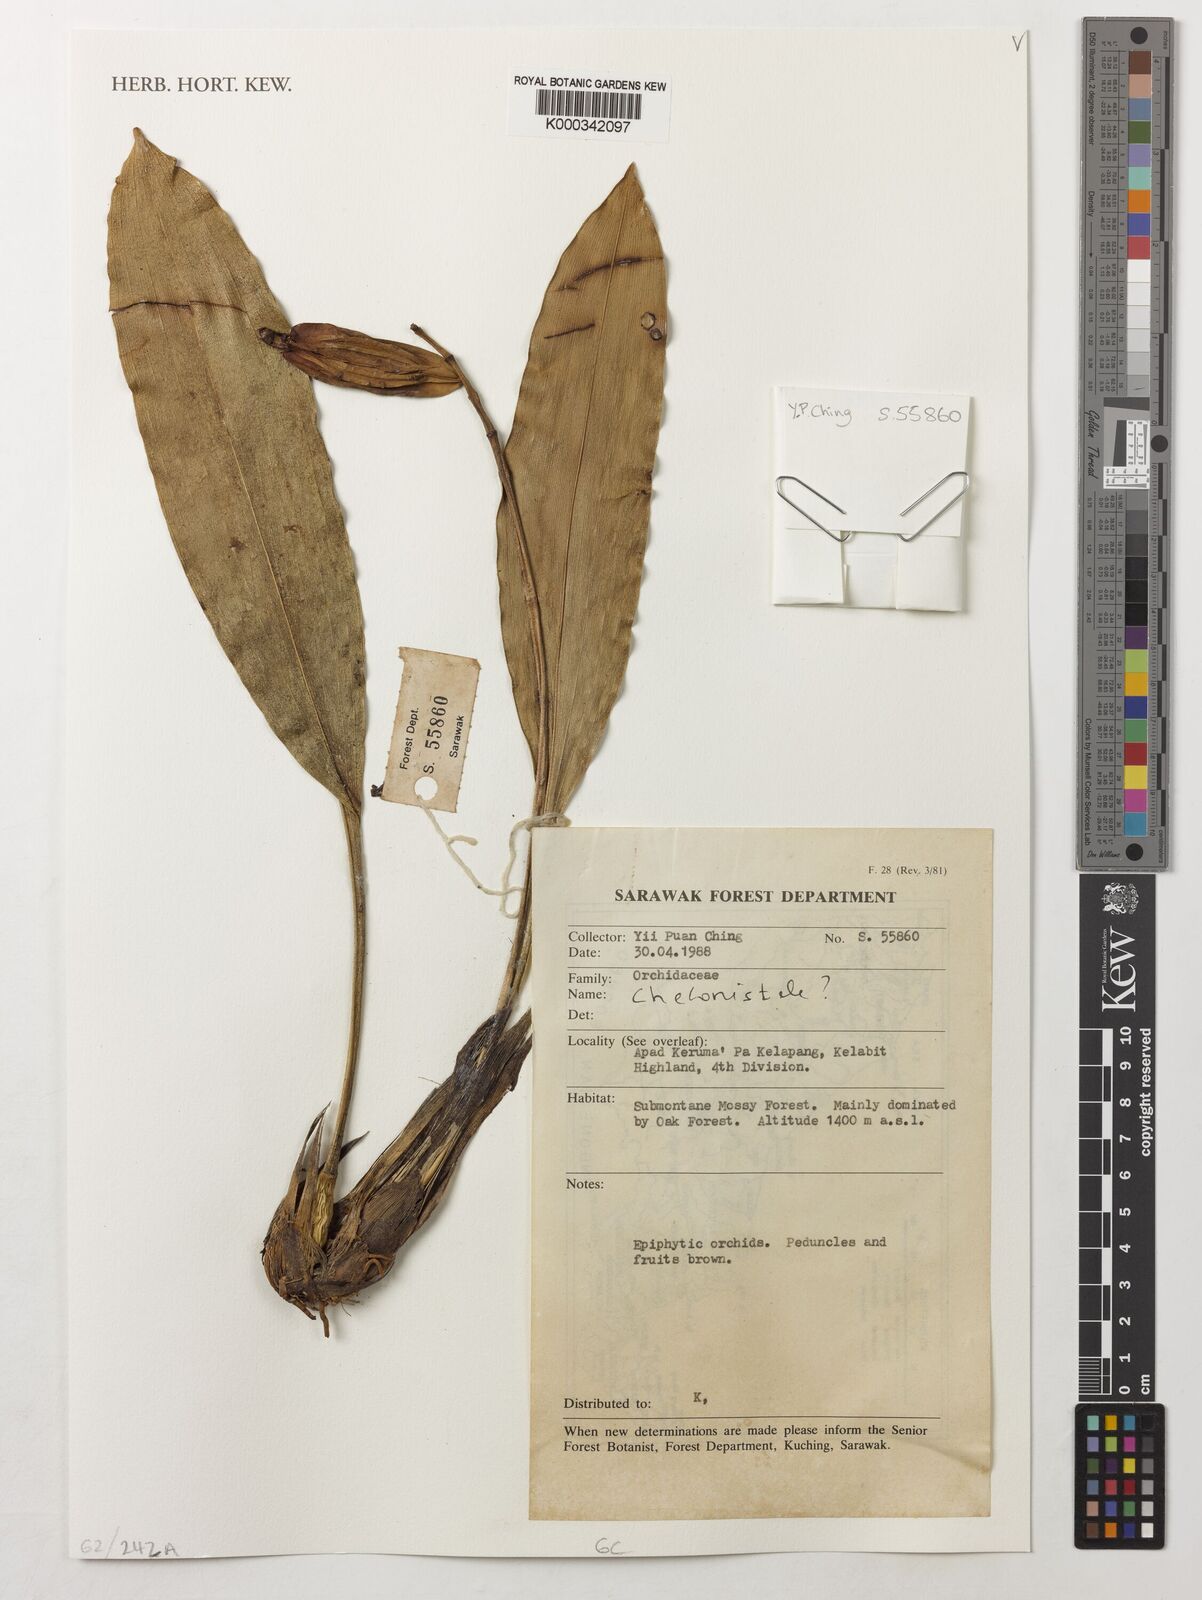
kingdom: Plantae
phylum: Tracheophyta
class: Liliopsida
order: Asparagales
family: Orchidaceae
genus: Coelogyne
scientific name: Coelogyne
